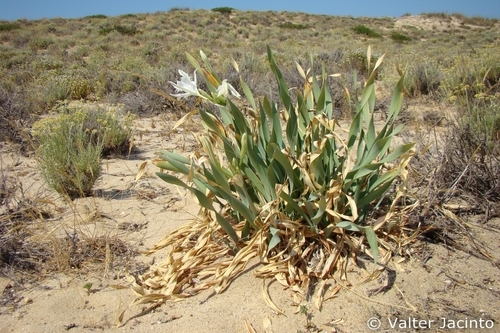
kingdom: Plantae
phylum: Tracheophyta
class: Liliopsida
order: Asparagales
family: Amaryllidaceae
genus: Pancratium
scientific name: Pancratium maritimum
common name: Sea-daffodil
